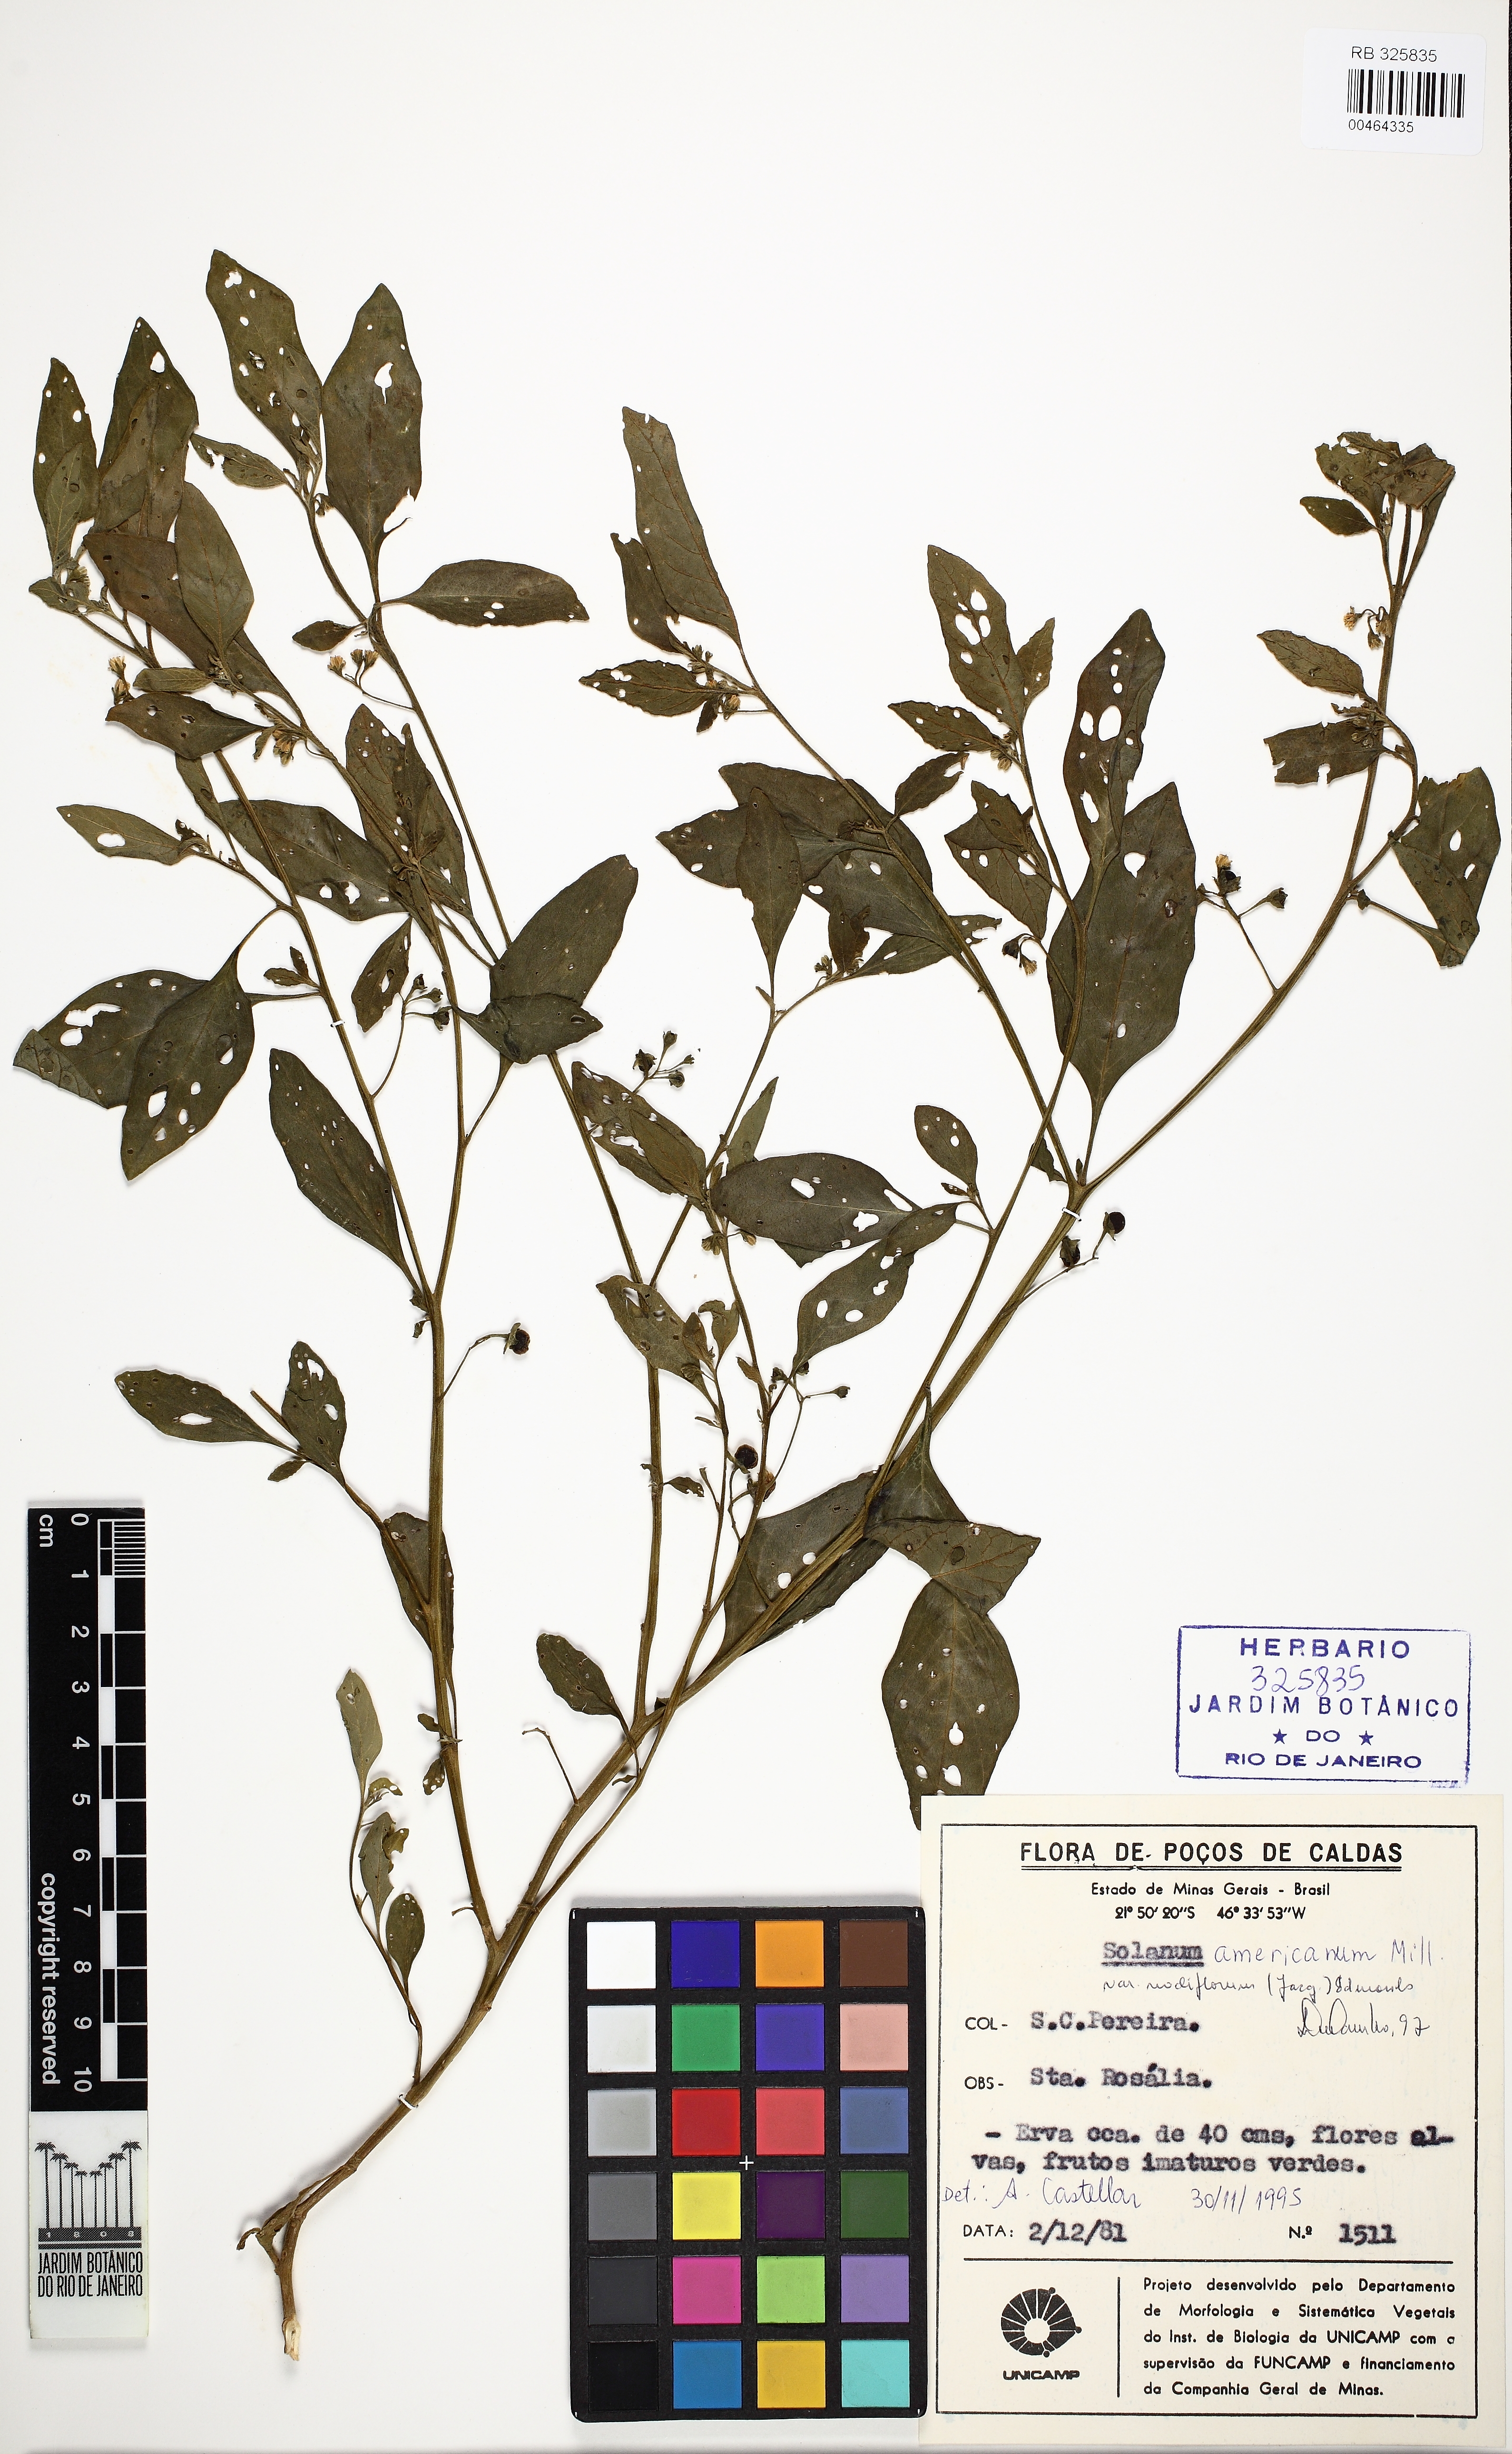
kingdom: Plantae
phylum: Tracheophyta
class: Magnoliopsida
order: Solanales
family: Solanaceae
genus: Solanum
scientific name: Solanum paucidens
